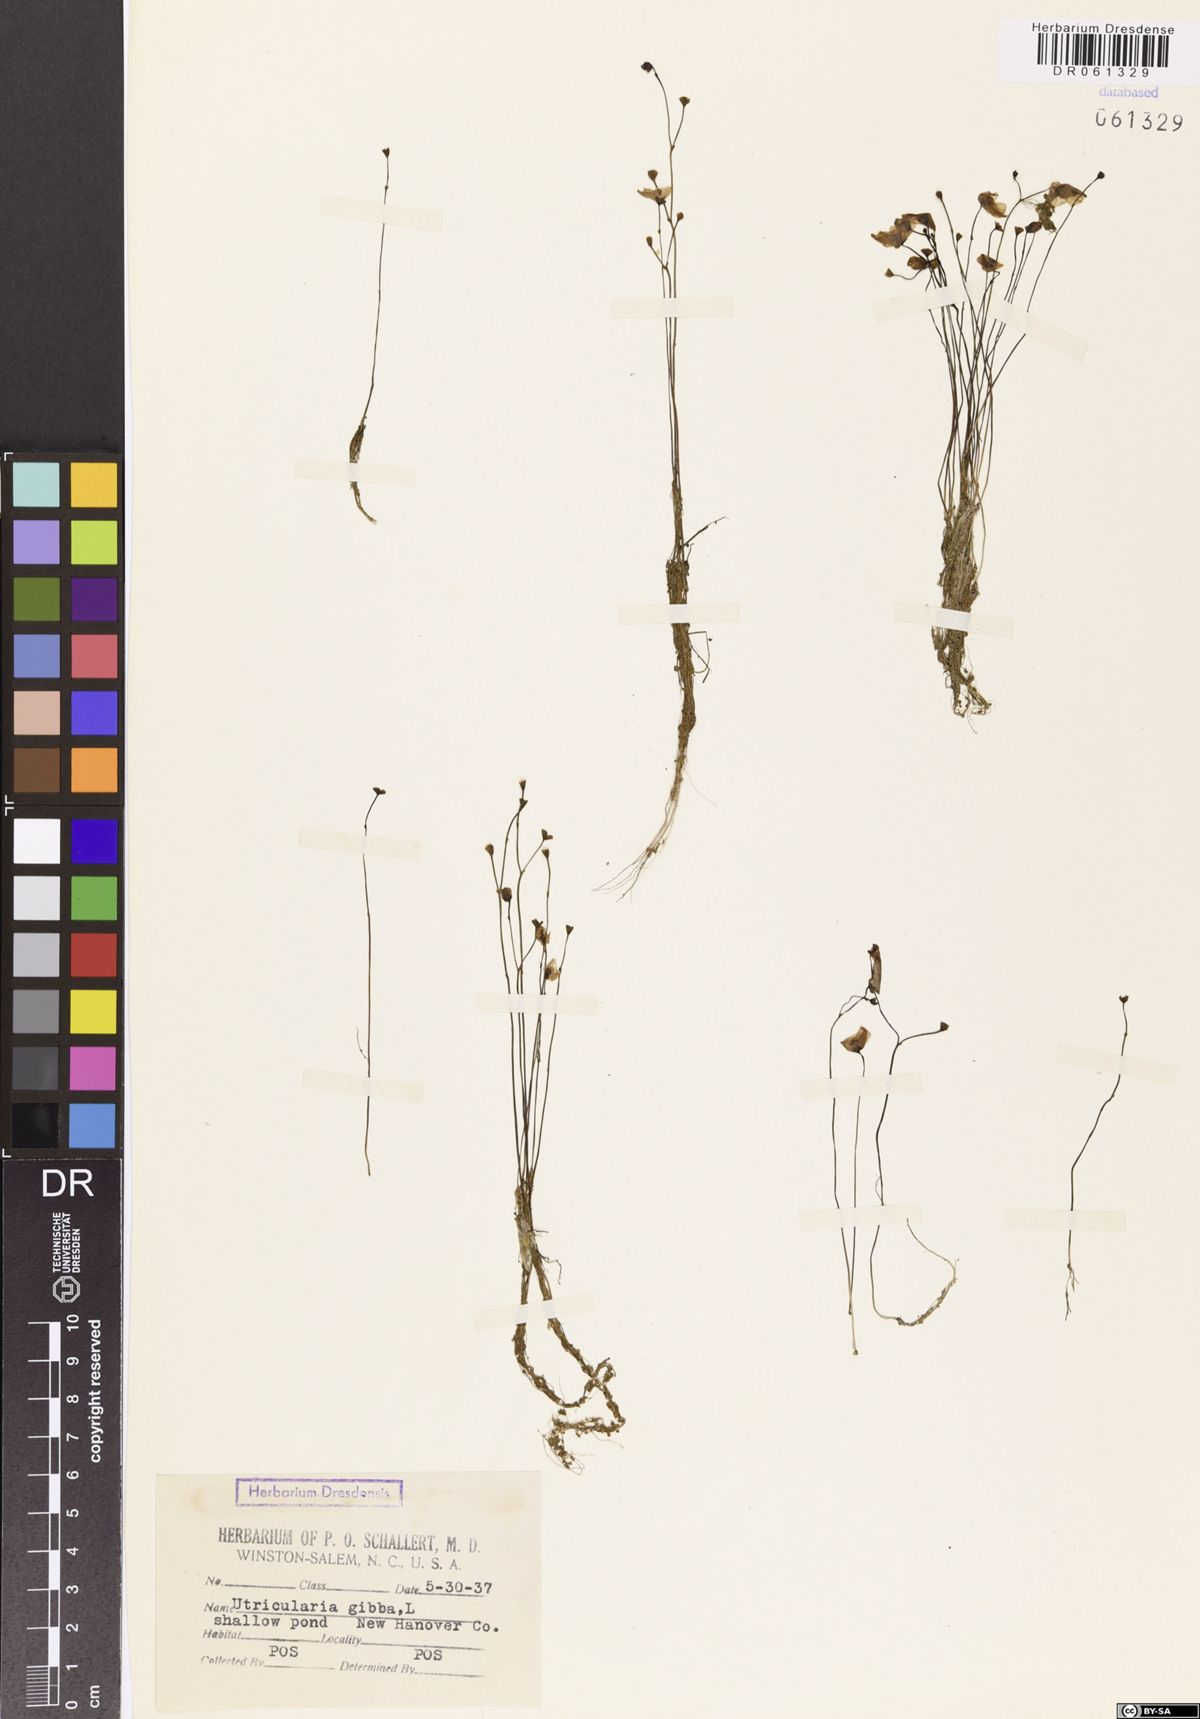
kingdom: Plantae
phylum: Tracheophyta
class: Magnoliopsida
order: Lamiales
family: Lentibulariaceae
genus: Utricularia
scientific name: Utricularia gibba
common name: Humped bladderwort
